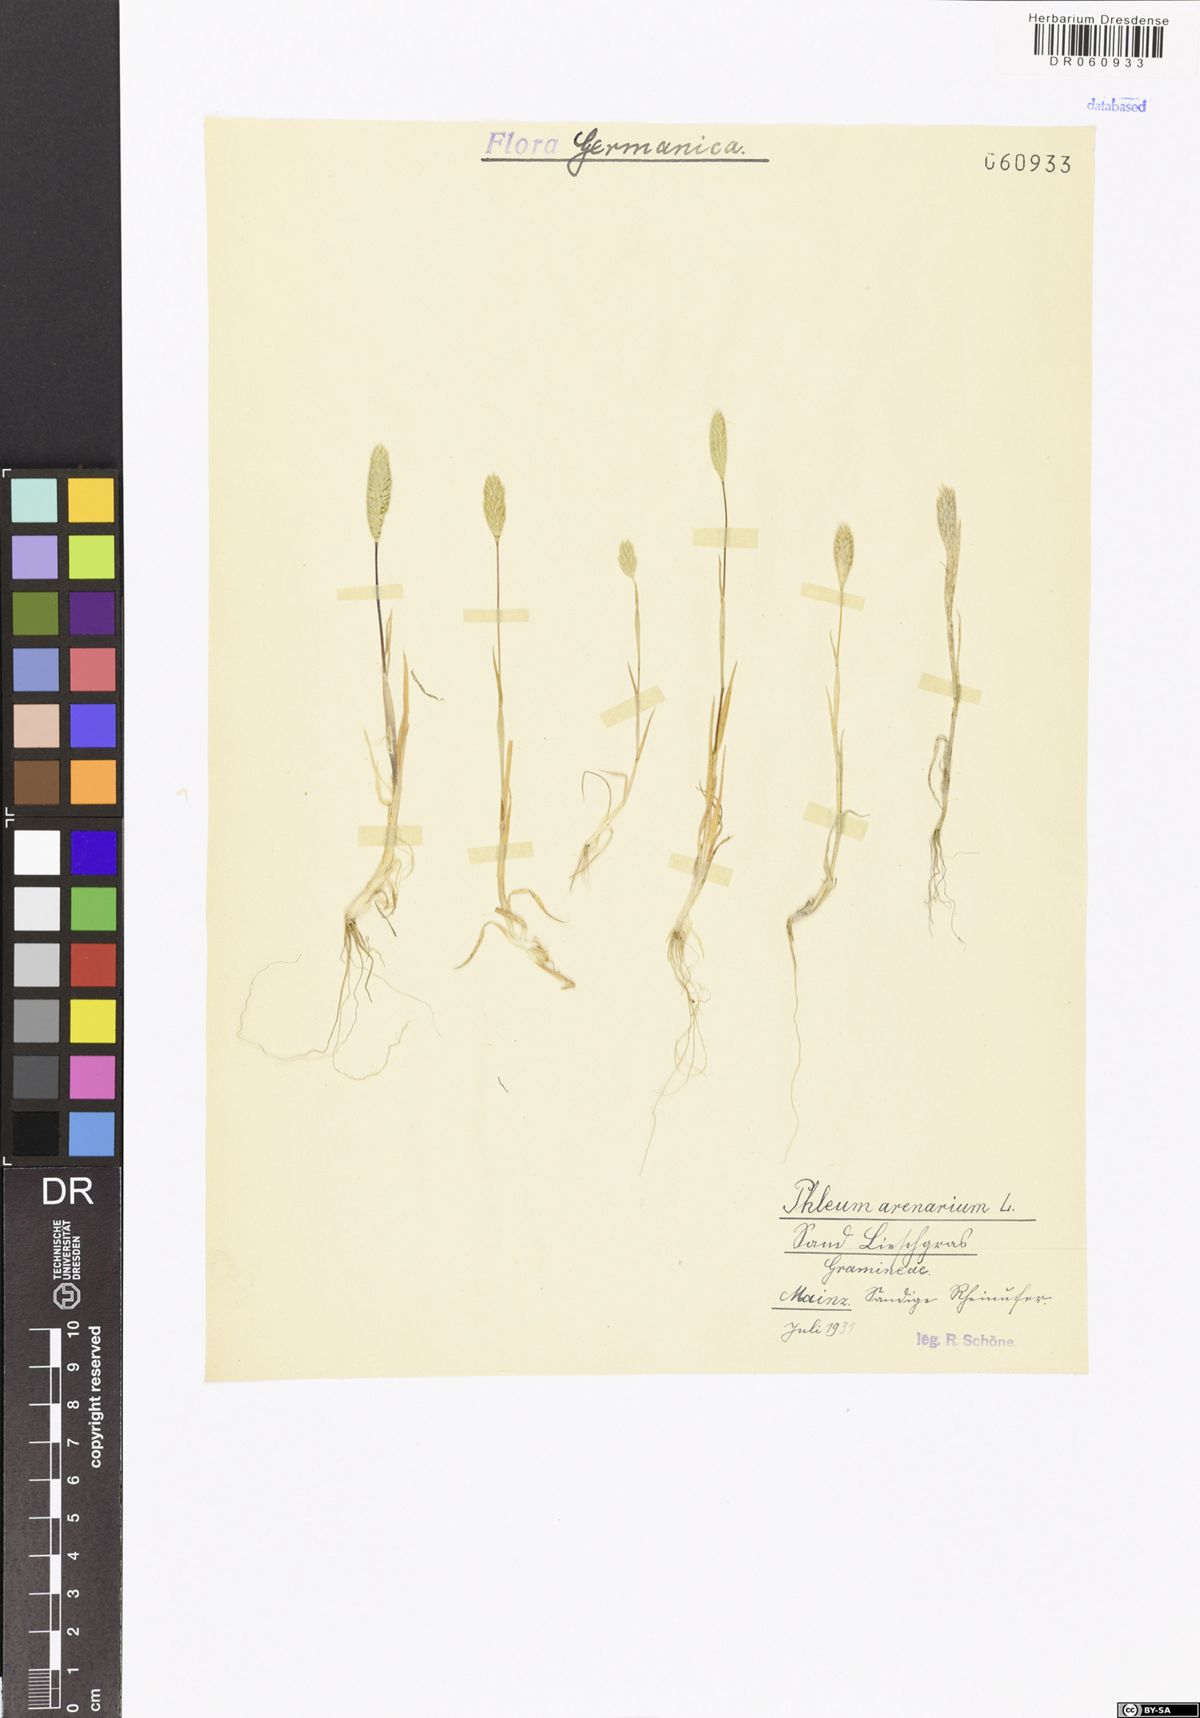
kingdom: Plantae
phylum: Tracheophyta
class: Liliopsida
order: Poales
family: Poaceae
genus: Phleum
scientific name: Phleum arenarium
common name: Sand cat's-tail
